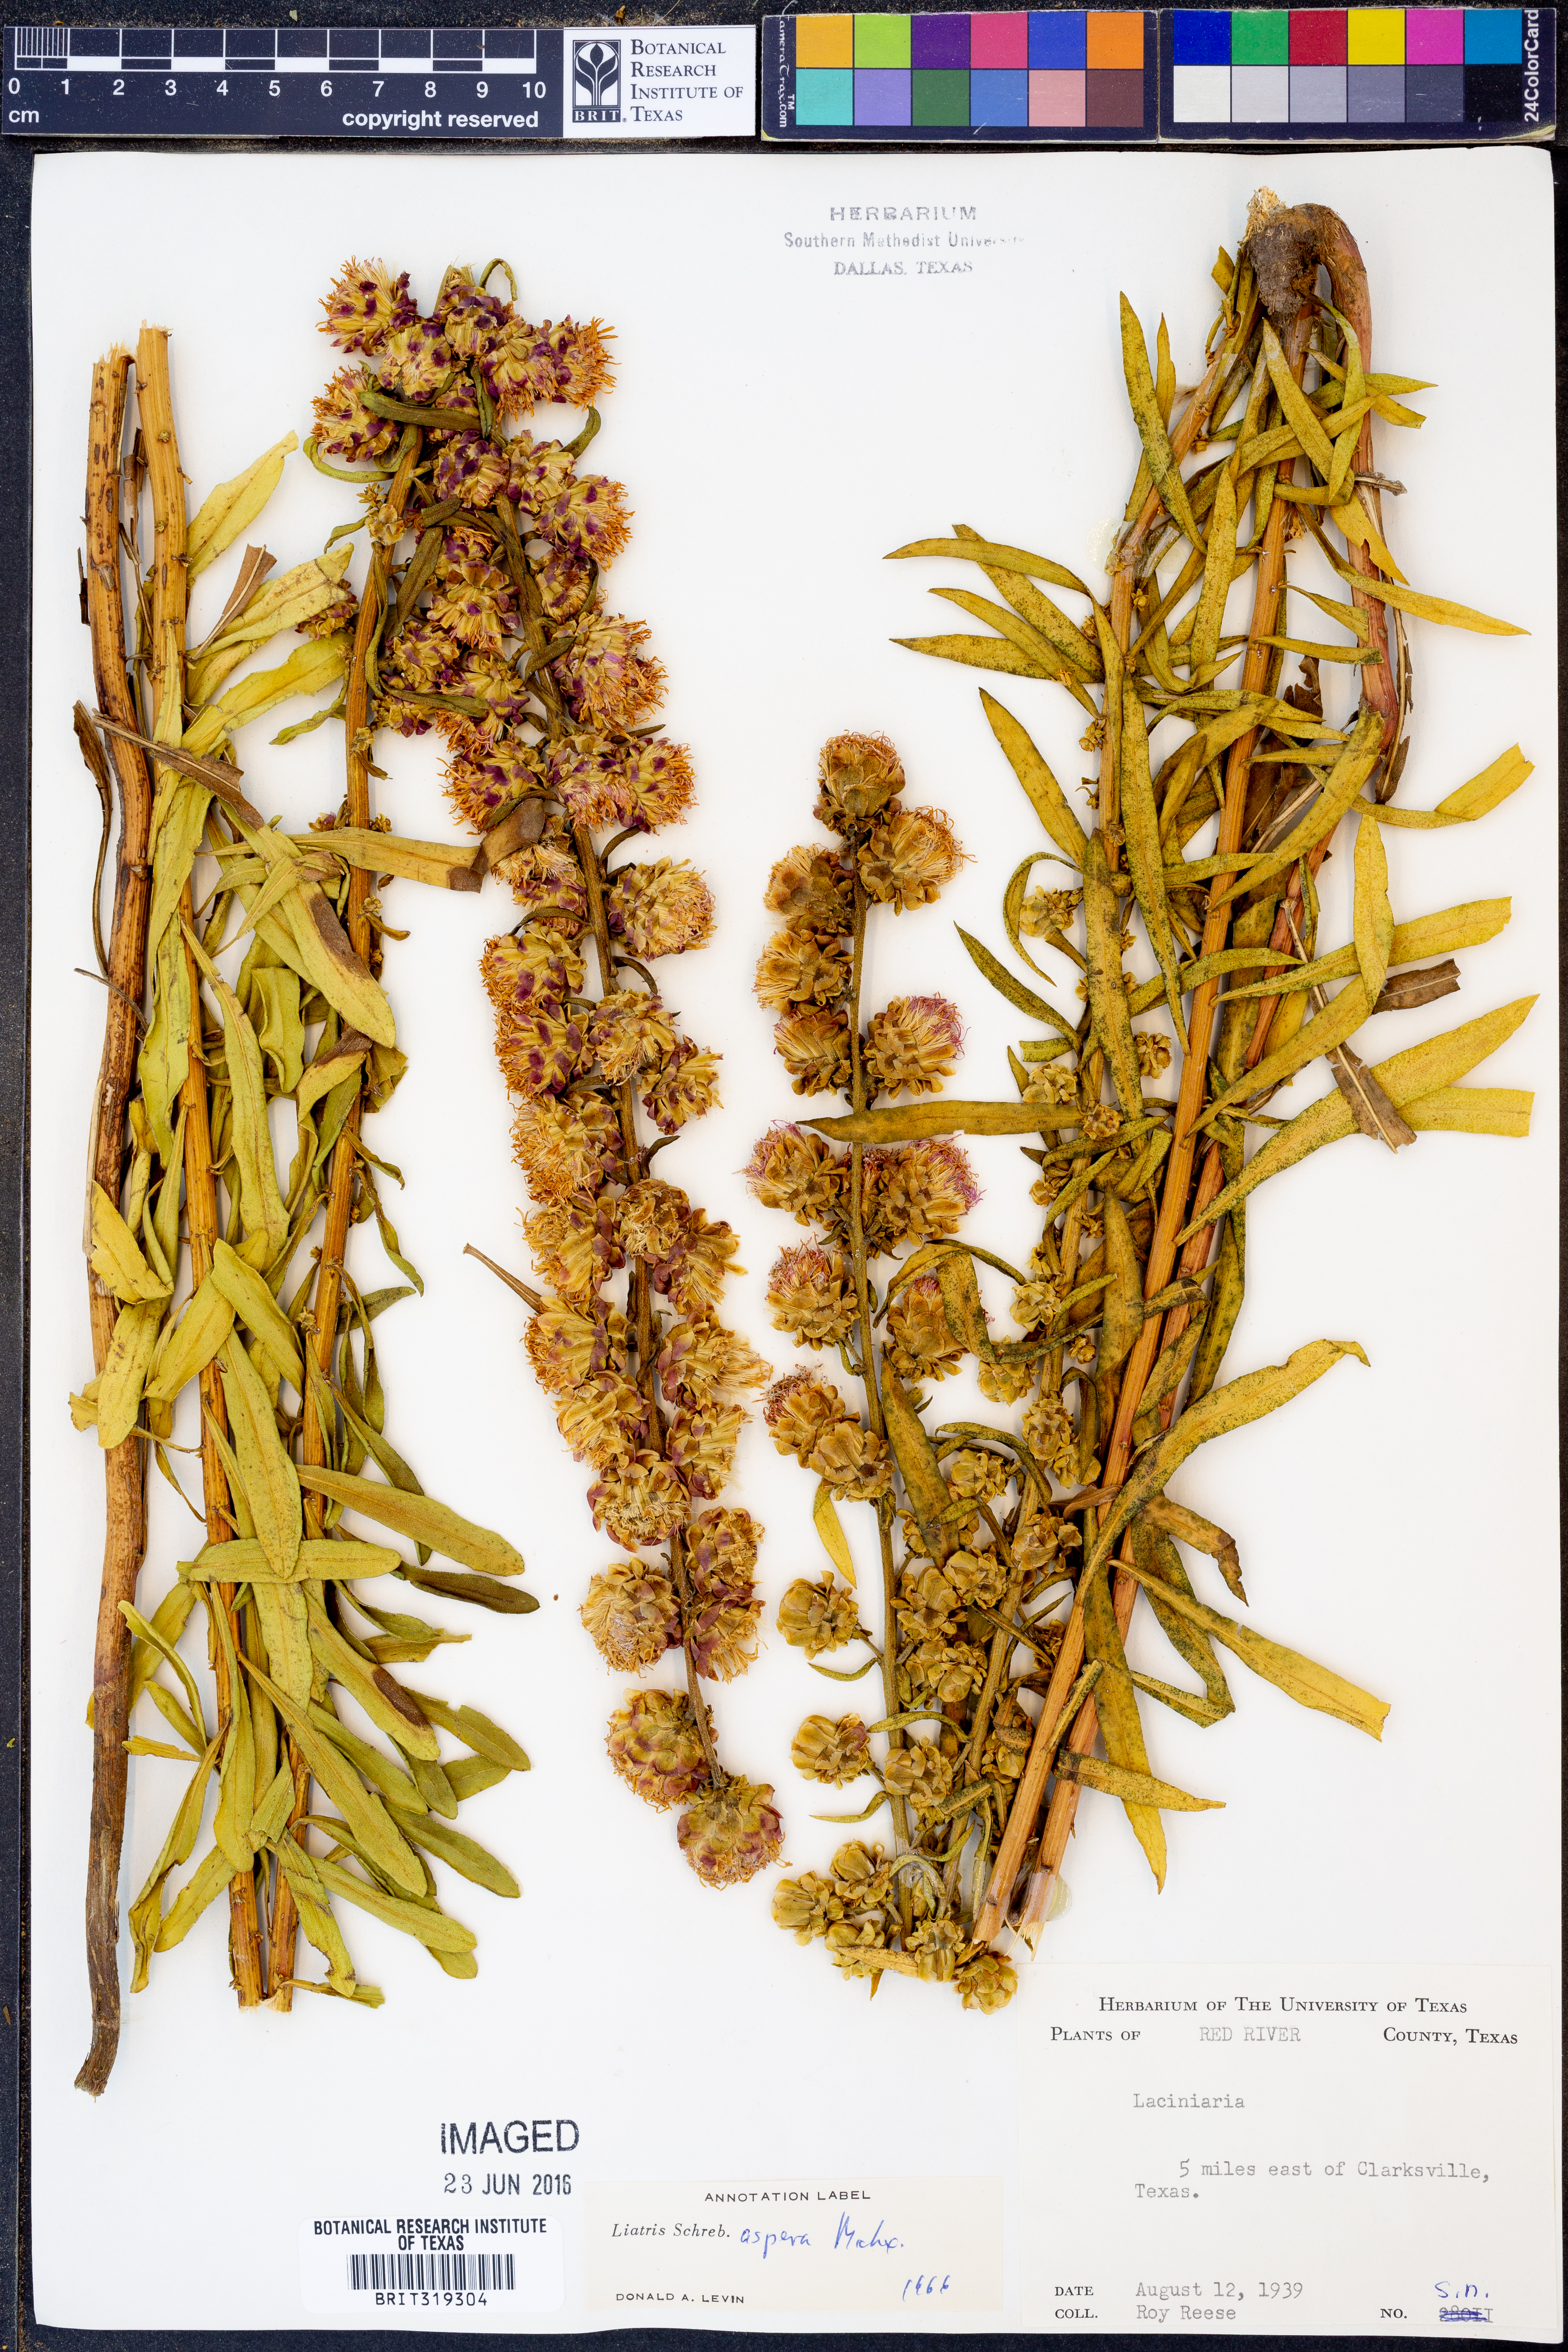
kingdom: Plantae
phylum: Tracheophyta
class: Magnoliopsida
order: Asterales
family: Asteraceae
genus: Liatris
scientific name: Liatris aspera
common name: Lacerate blazing-star
